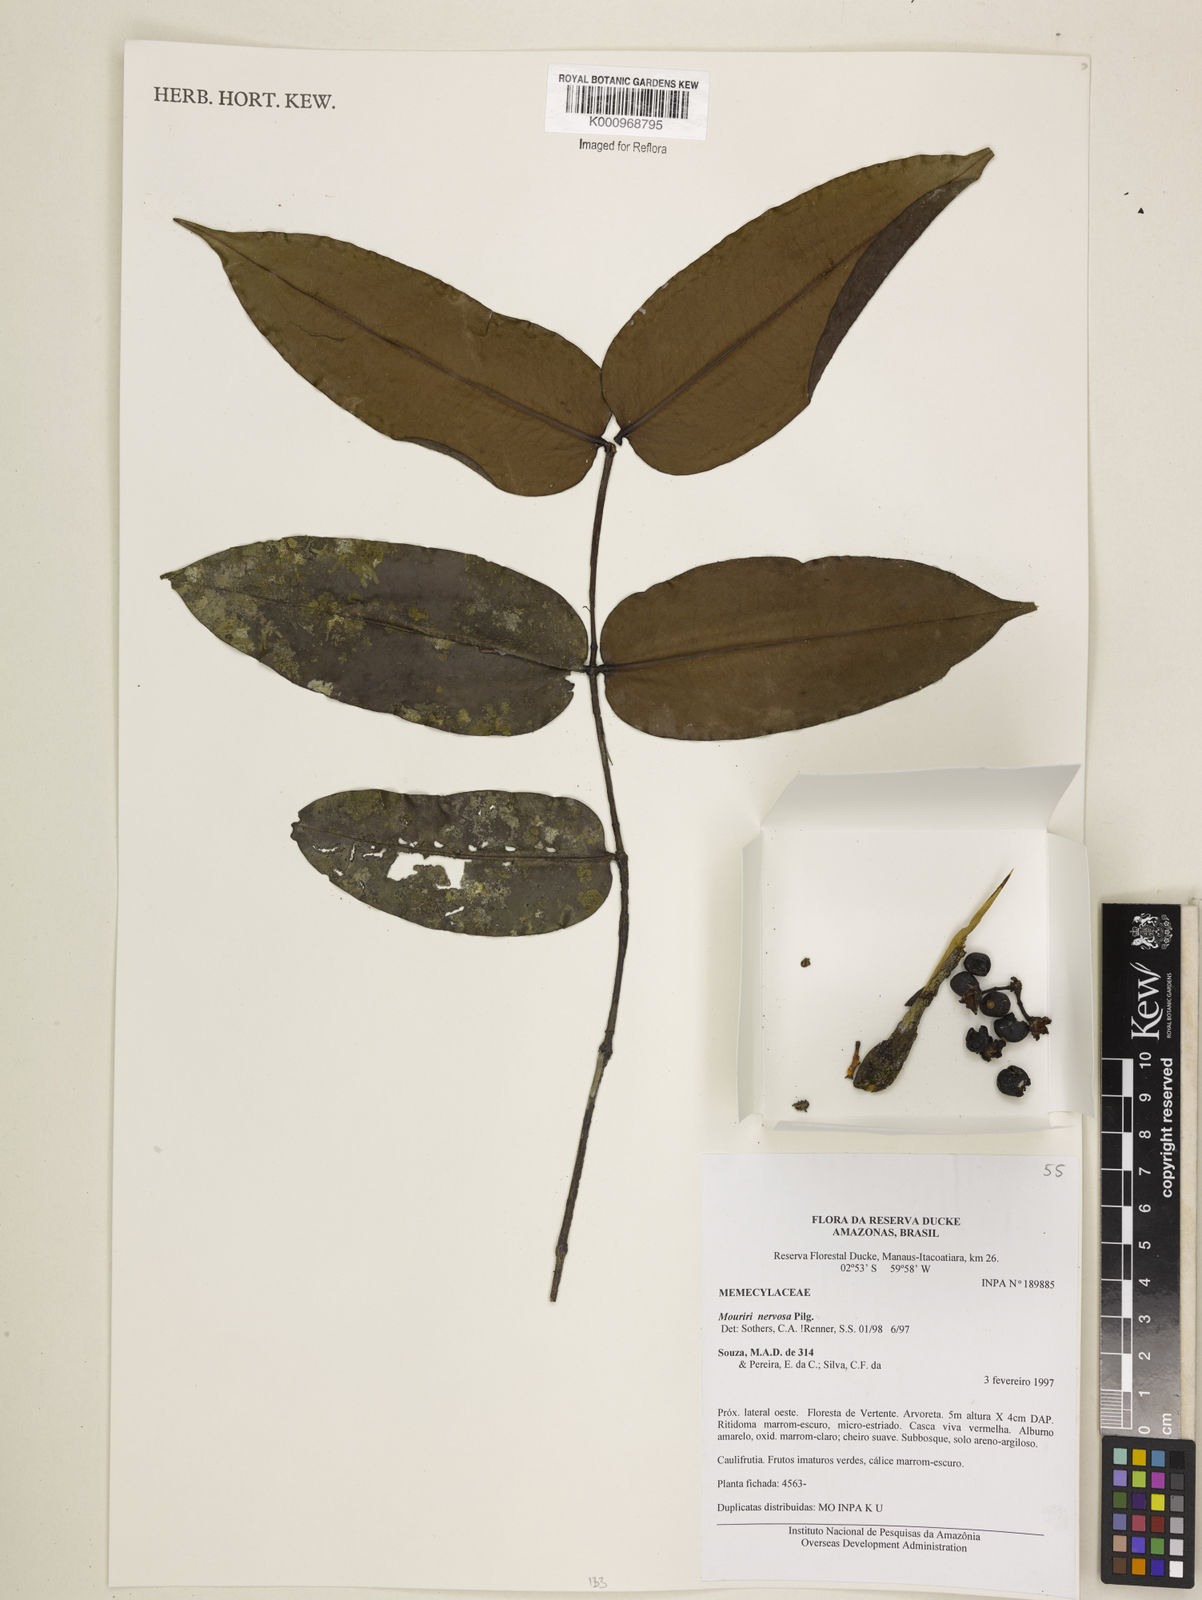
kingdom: Plantae
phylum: Tracheophyta
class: Magnoliopsida
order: Myrtales
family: Melastomataceae
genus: Mouriri
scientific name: Mouriri sideroxylon
